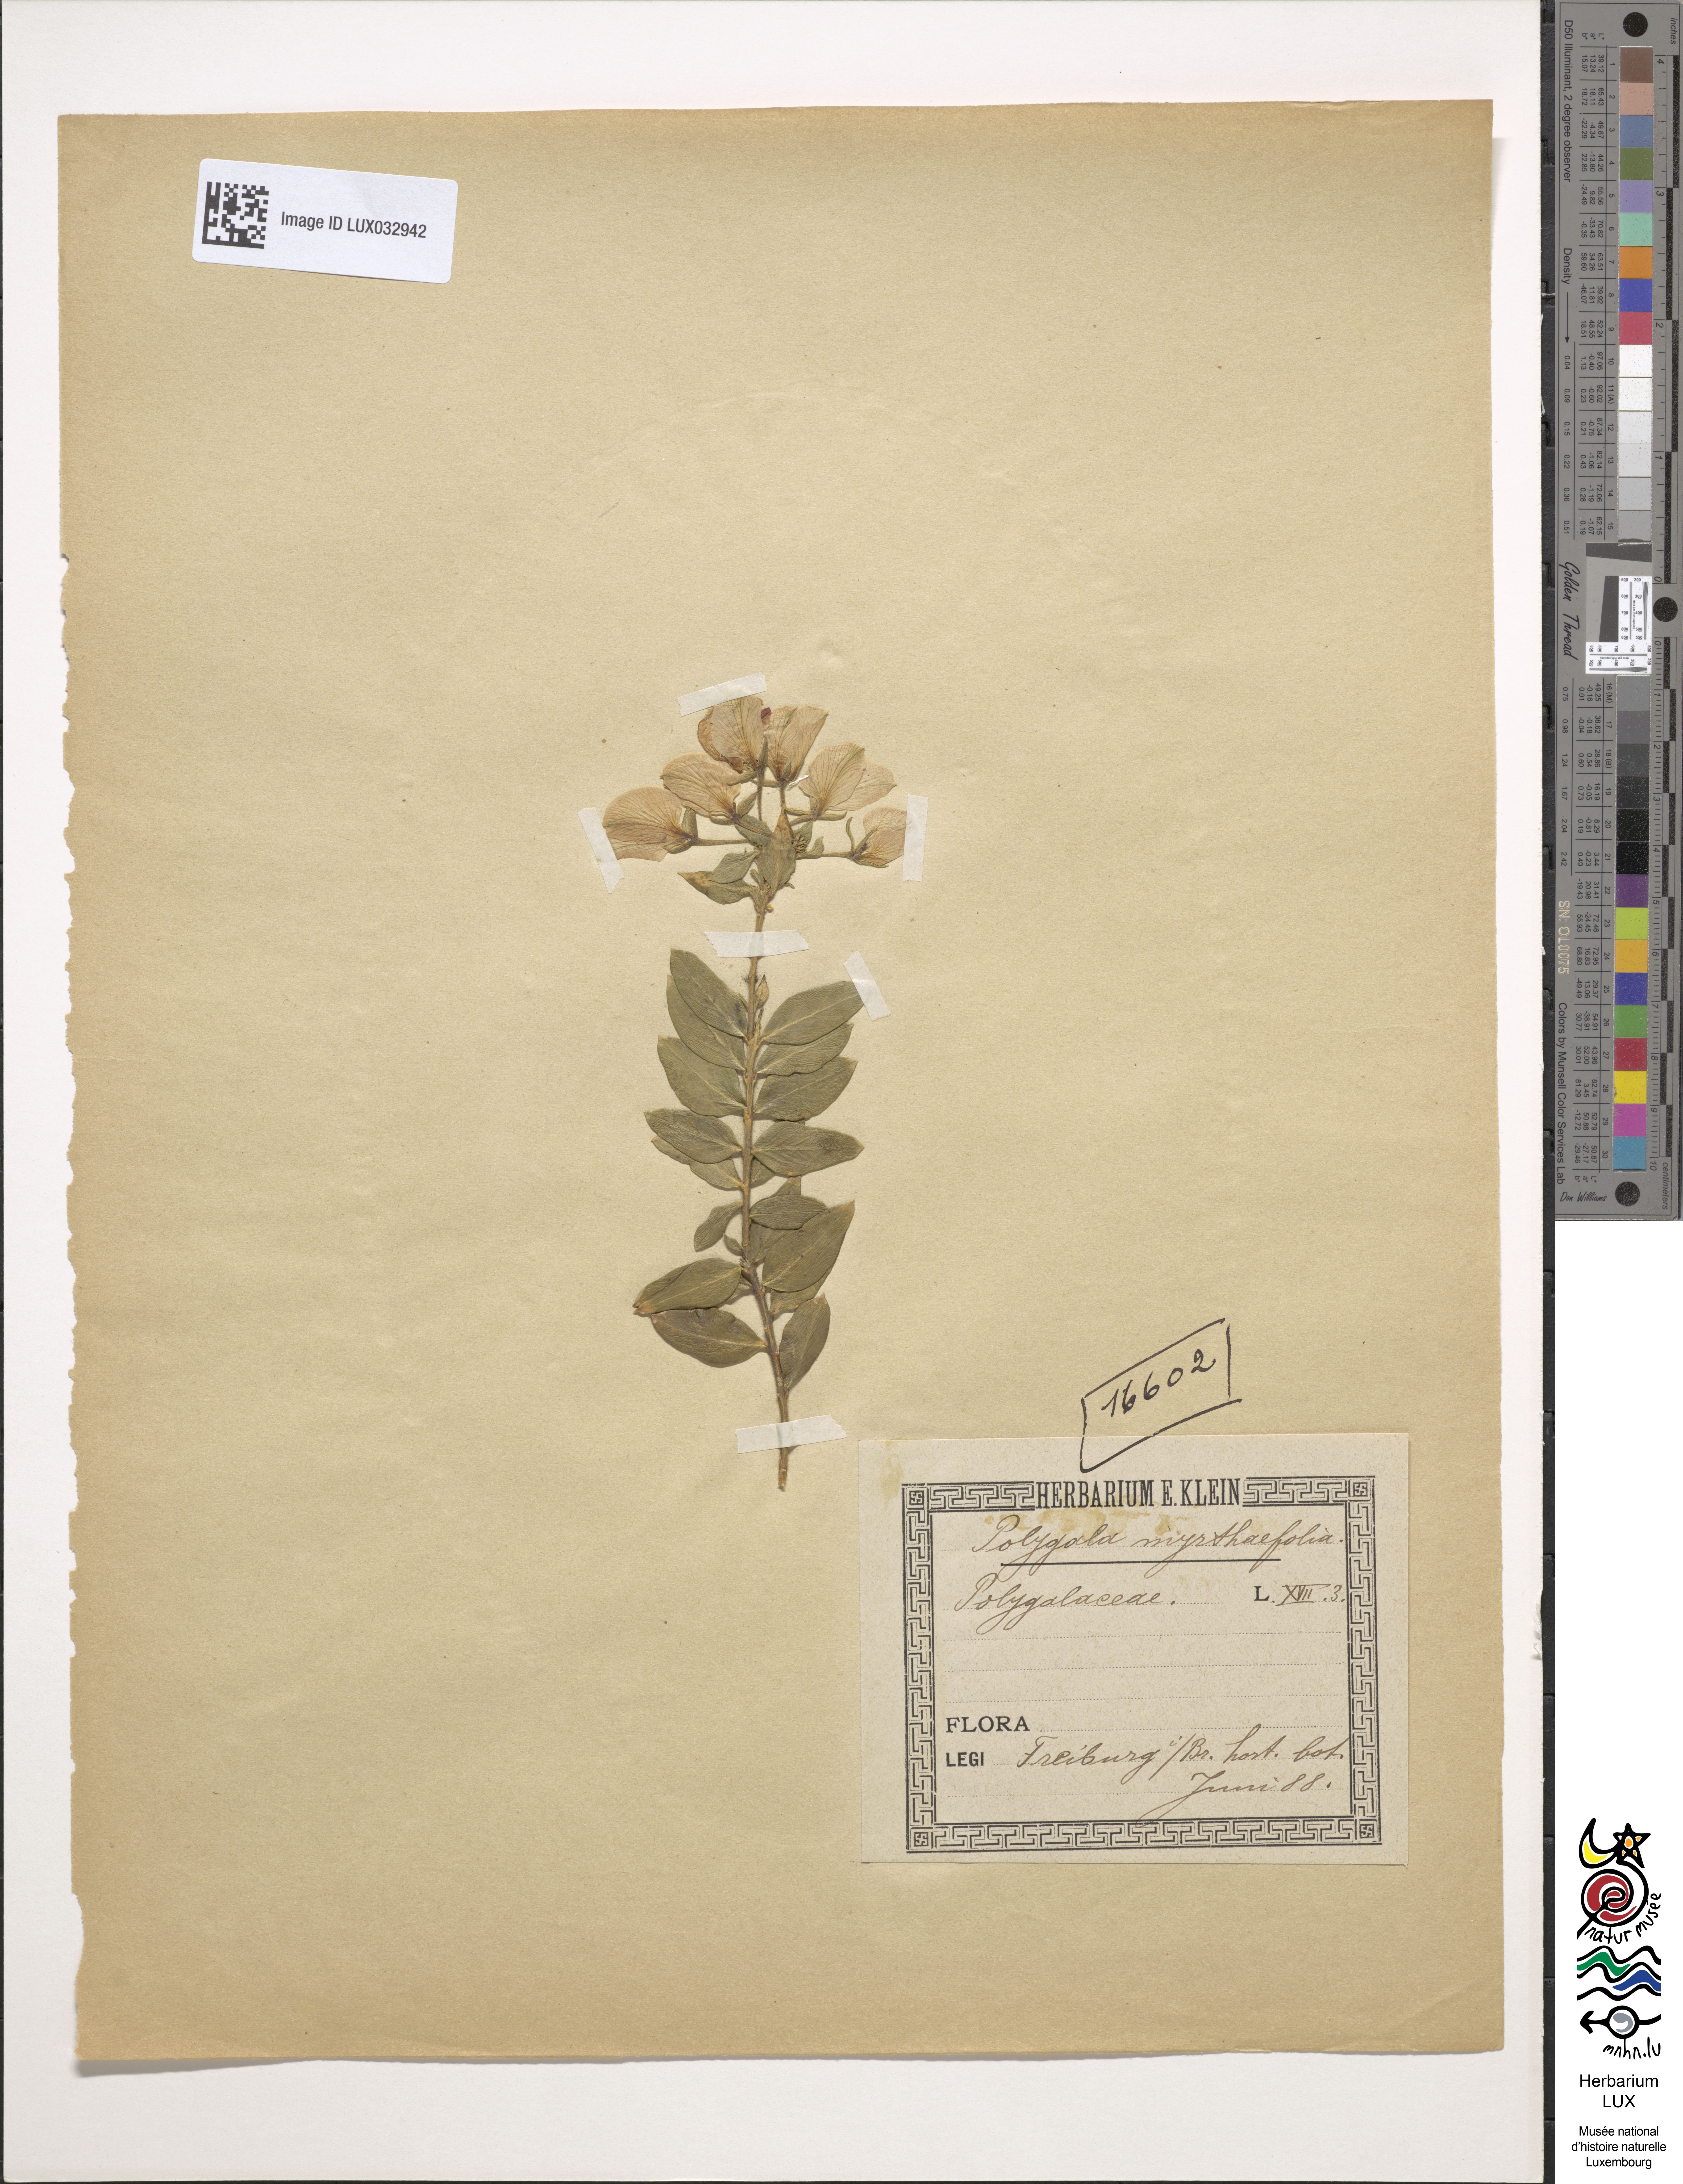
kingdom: Plantae
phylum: Tracheophyta
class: Magnoliopsida
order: Fabales
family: Polygalaceae
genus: Polygala
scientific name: Polygala myrtifolia
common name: Myrtle-leaf milkwort
